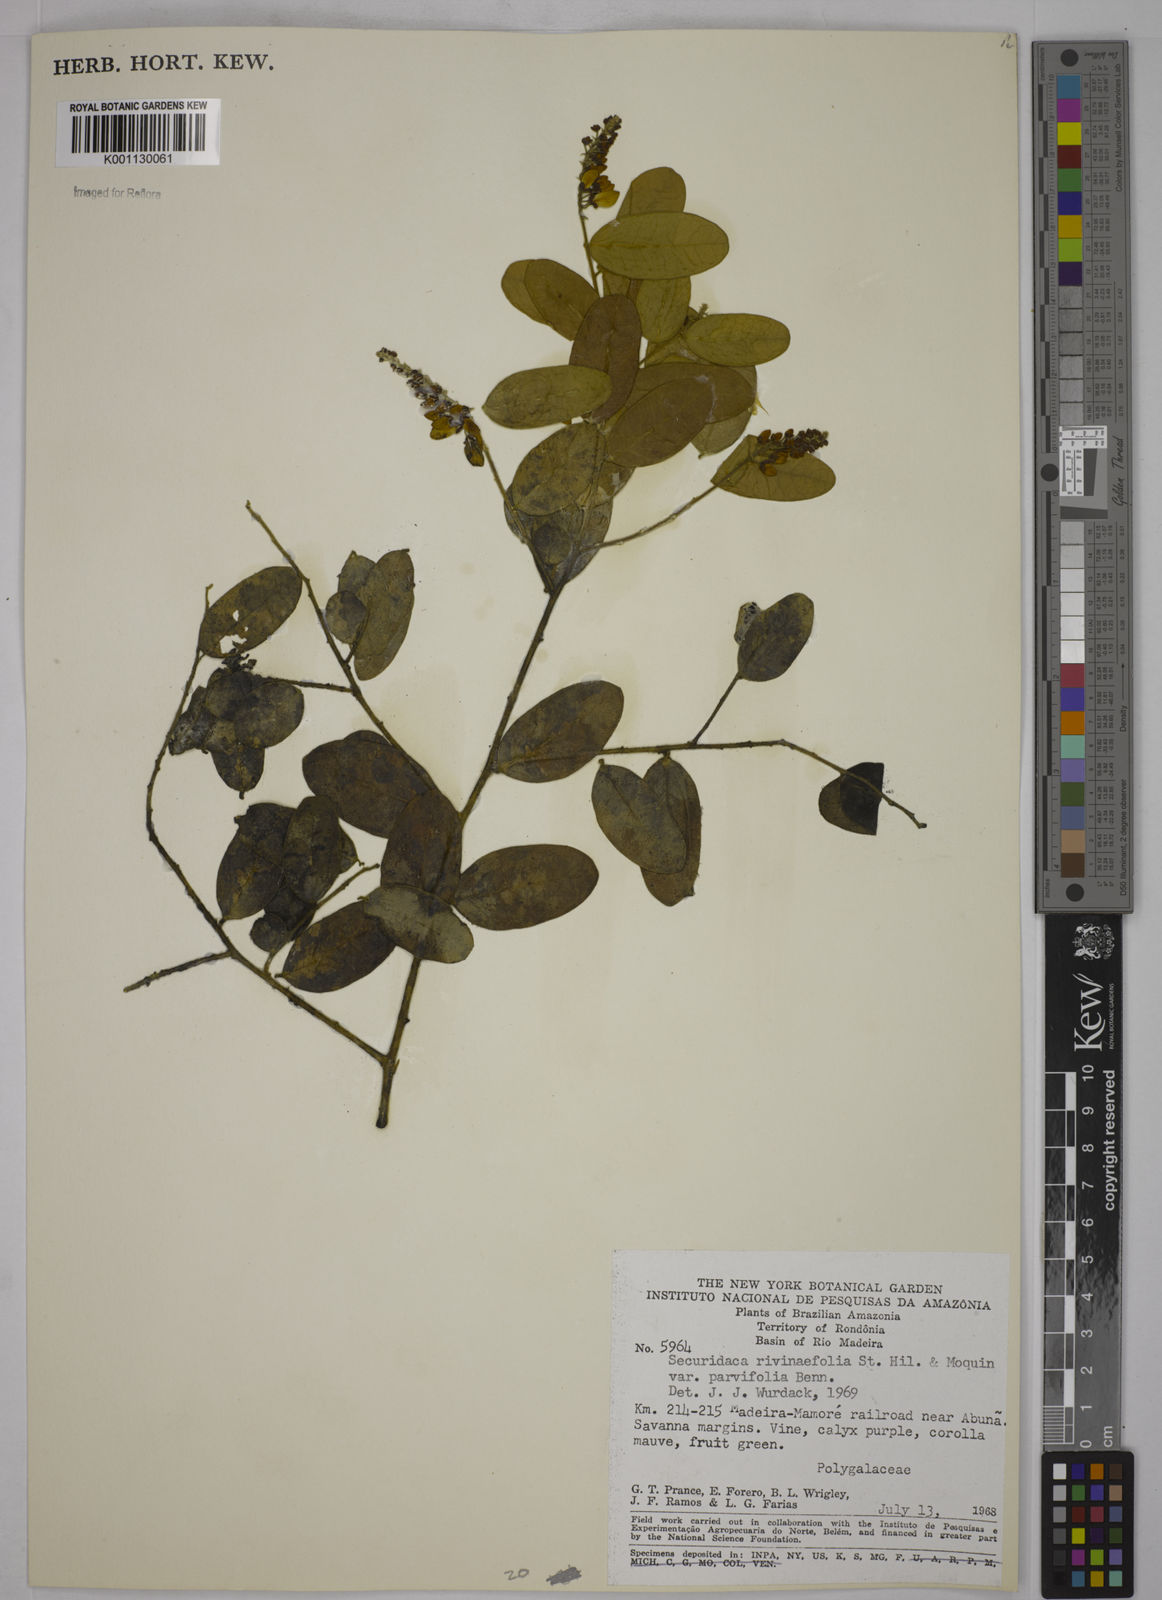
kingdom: Plantae
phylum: Tracheophyta
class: Magnoliopsida
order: Fabales
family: Polygalaceae
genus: Securidaca
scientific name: Securidaca rivinifolia
